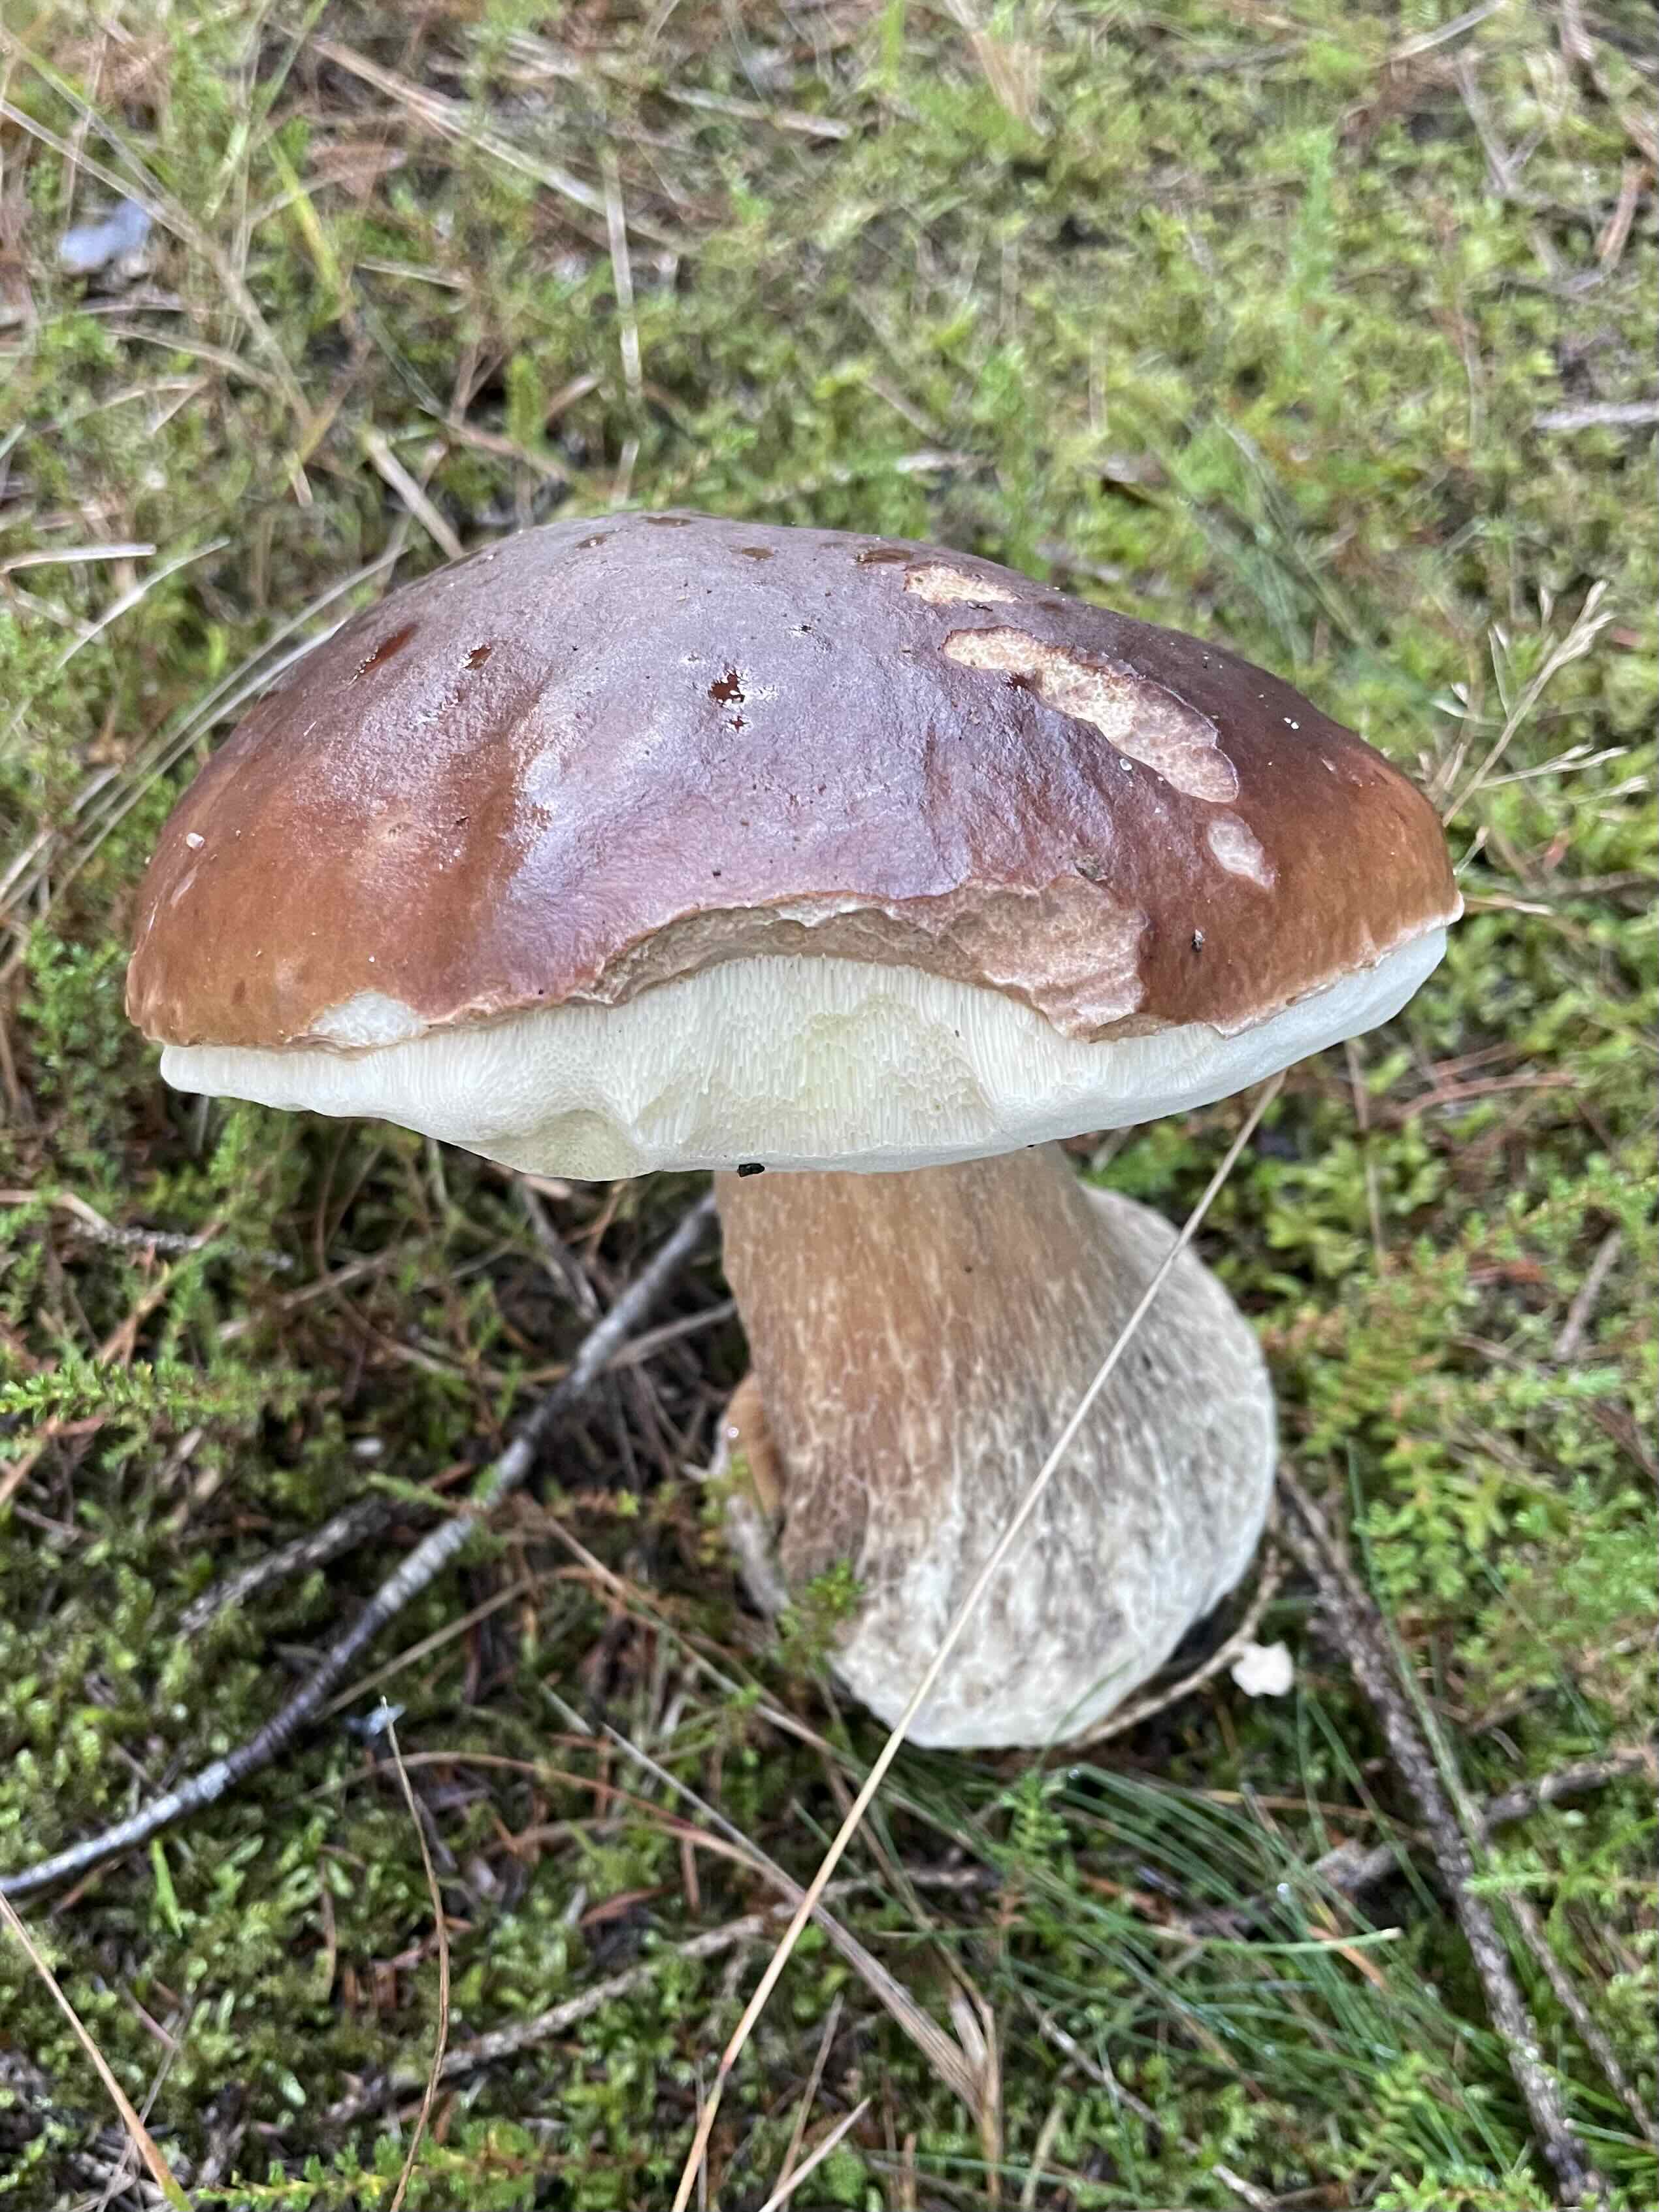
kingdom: Fungi
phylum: Basidiomycota
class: Agaricomycetes
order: Boletales
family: Boletaceae
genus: Boletus
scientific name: Boletus edulis
